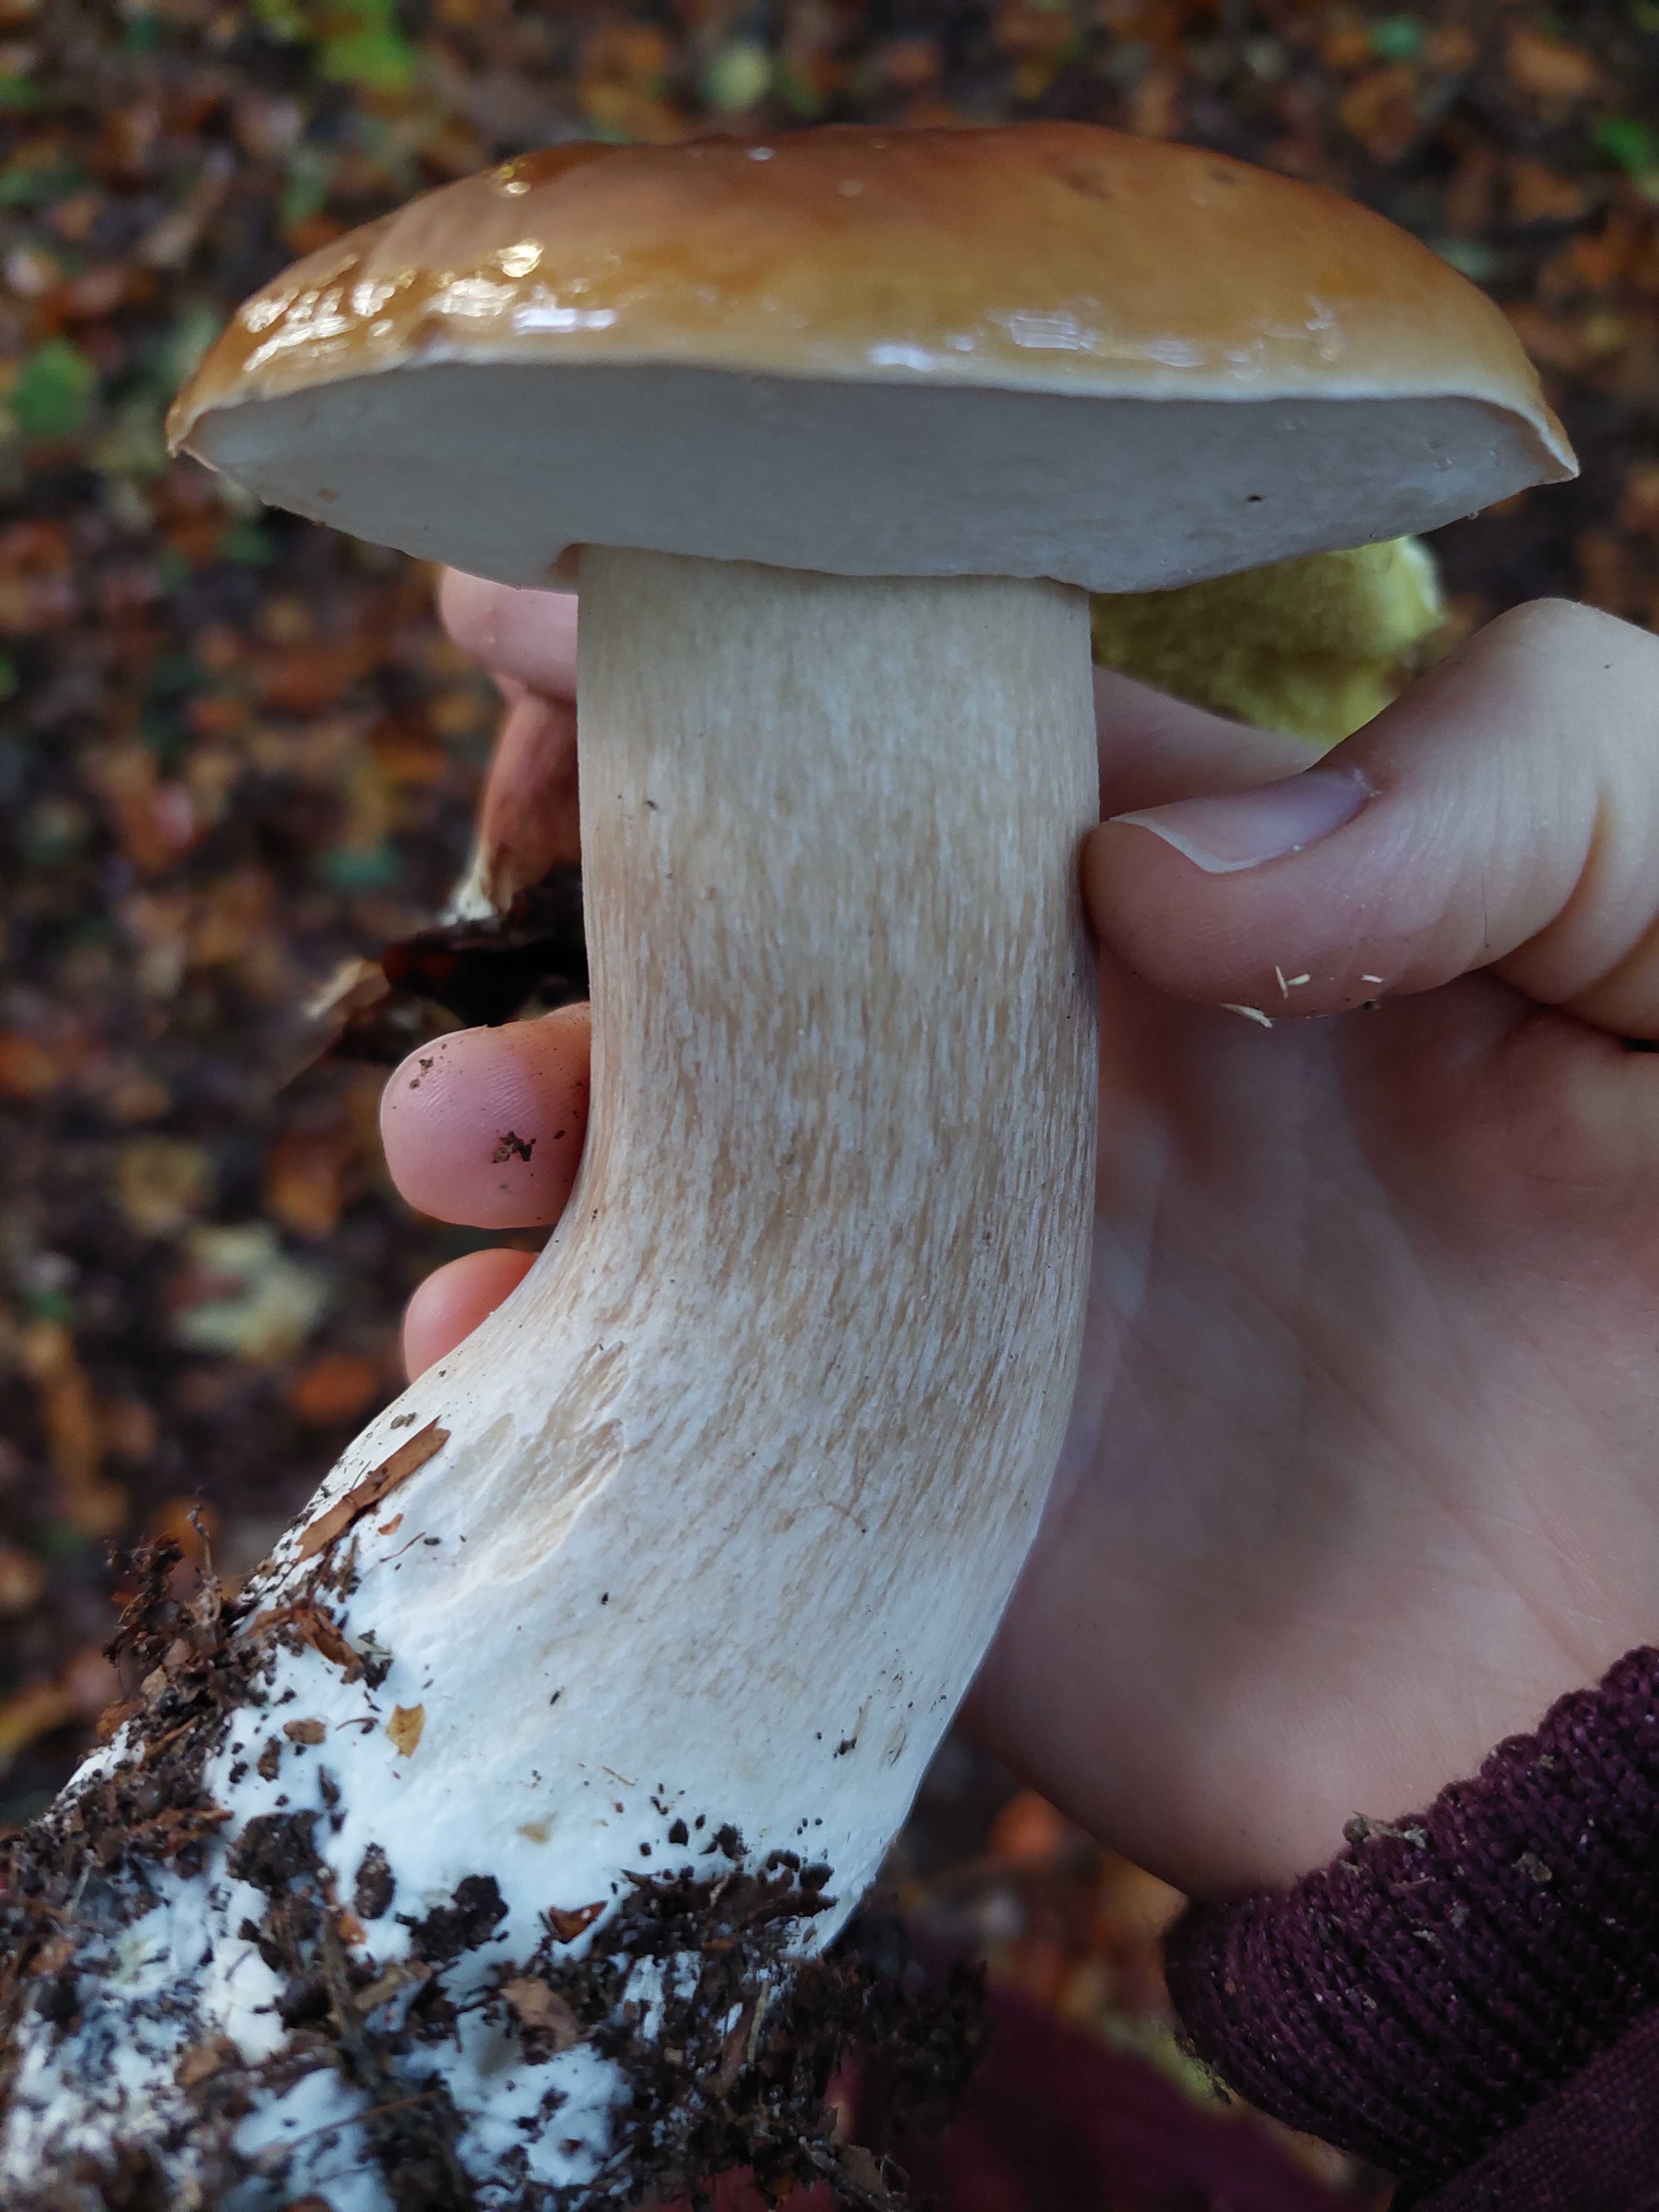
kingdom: Fungi
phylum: Basidiomycota
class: Agaricomycetes
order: Boletales
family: Boletaceae
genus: Boletus
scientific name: Boletus edulis
